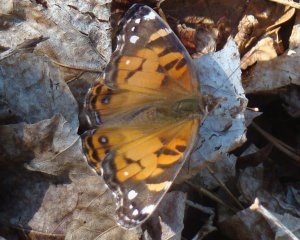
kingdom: Animalia
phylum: Arthropoda
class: Insecta
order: Lepidoptera
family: Nymphalidae
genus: Vanessa
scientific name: Vanessa virginiensis
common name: American Lady
